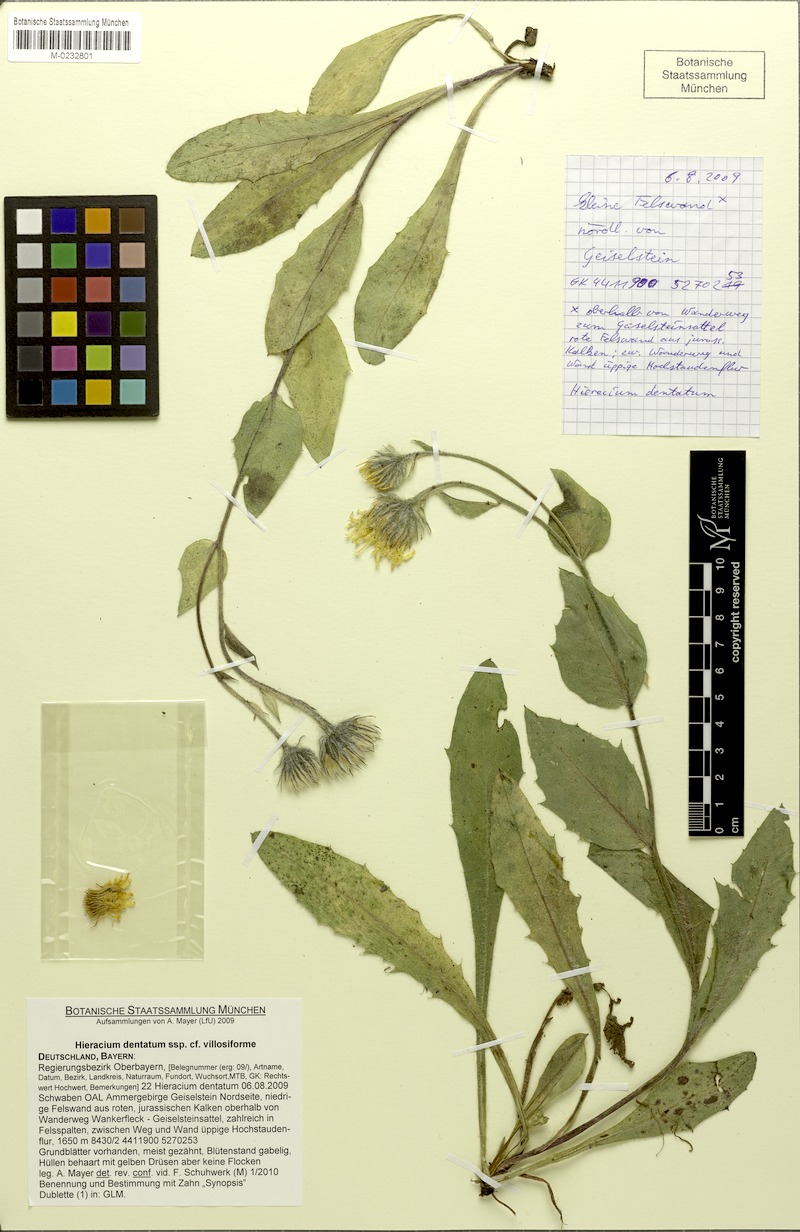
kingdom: Plantae
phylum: Tracheophyta
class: Magnoliopsida
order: Asterales
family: Asteraceae
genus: Hieracium
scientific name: Hieracium diaphanoides
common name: Fine-bracted hawkweed
